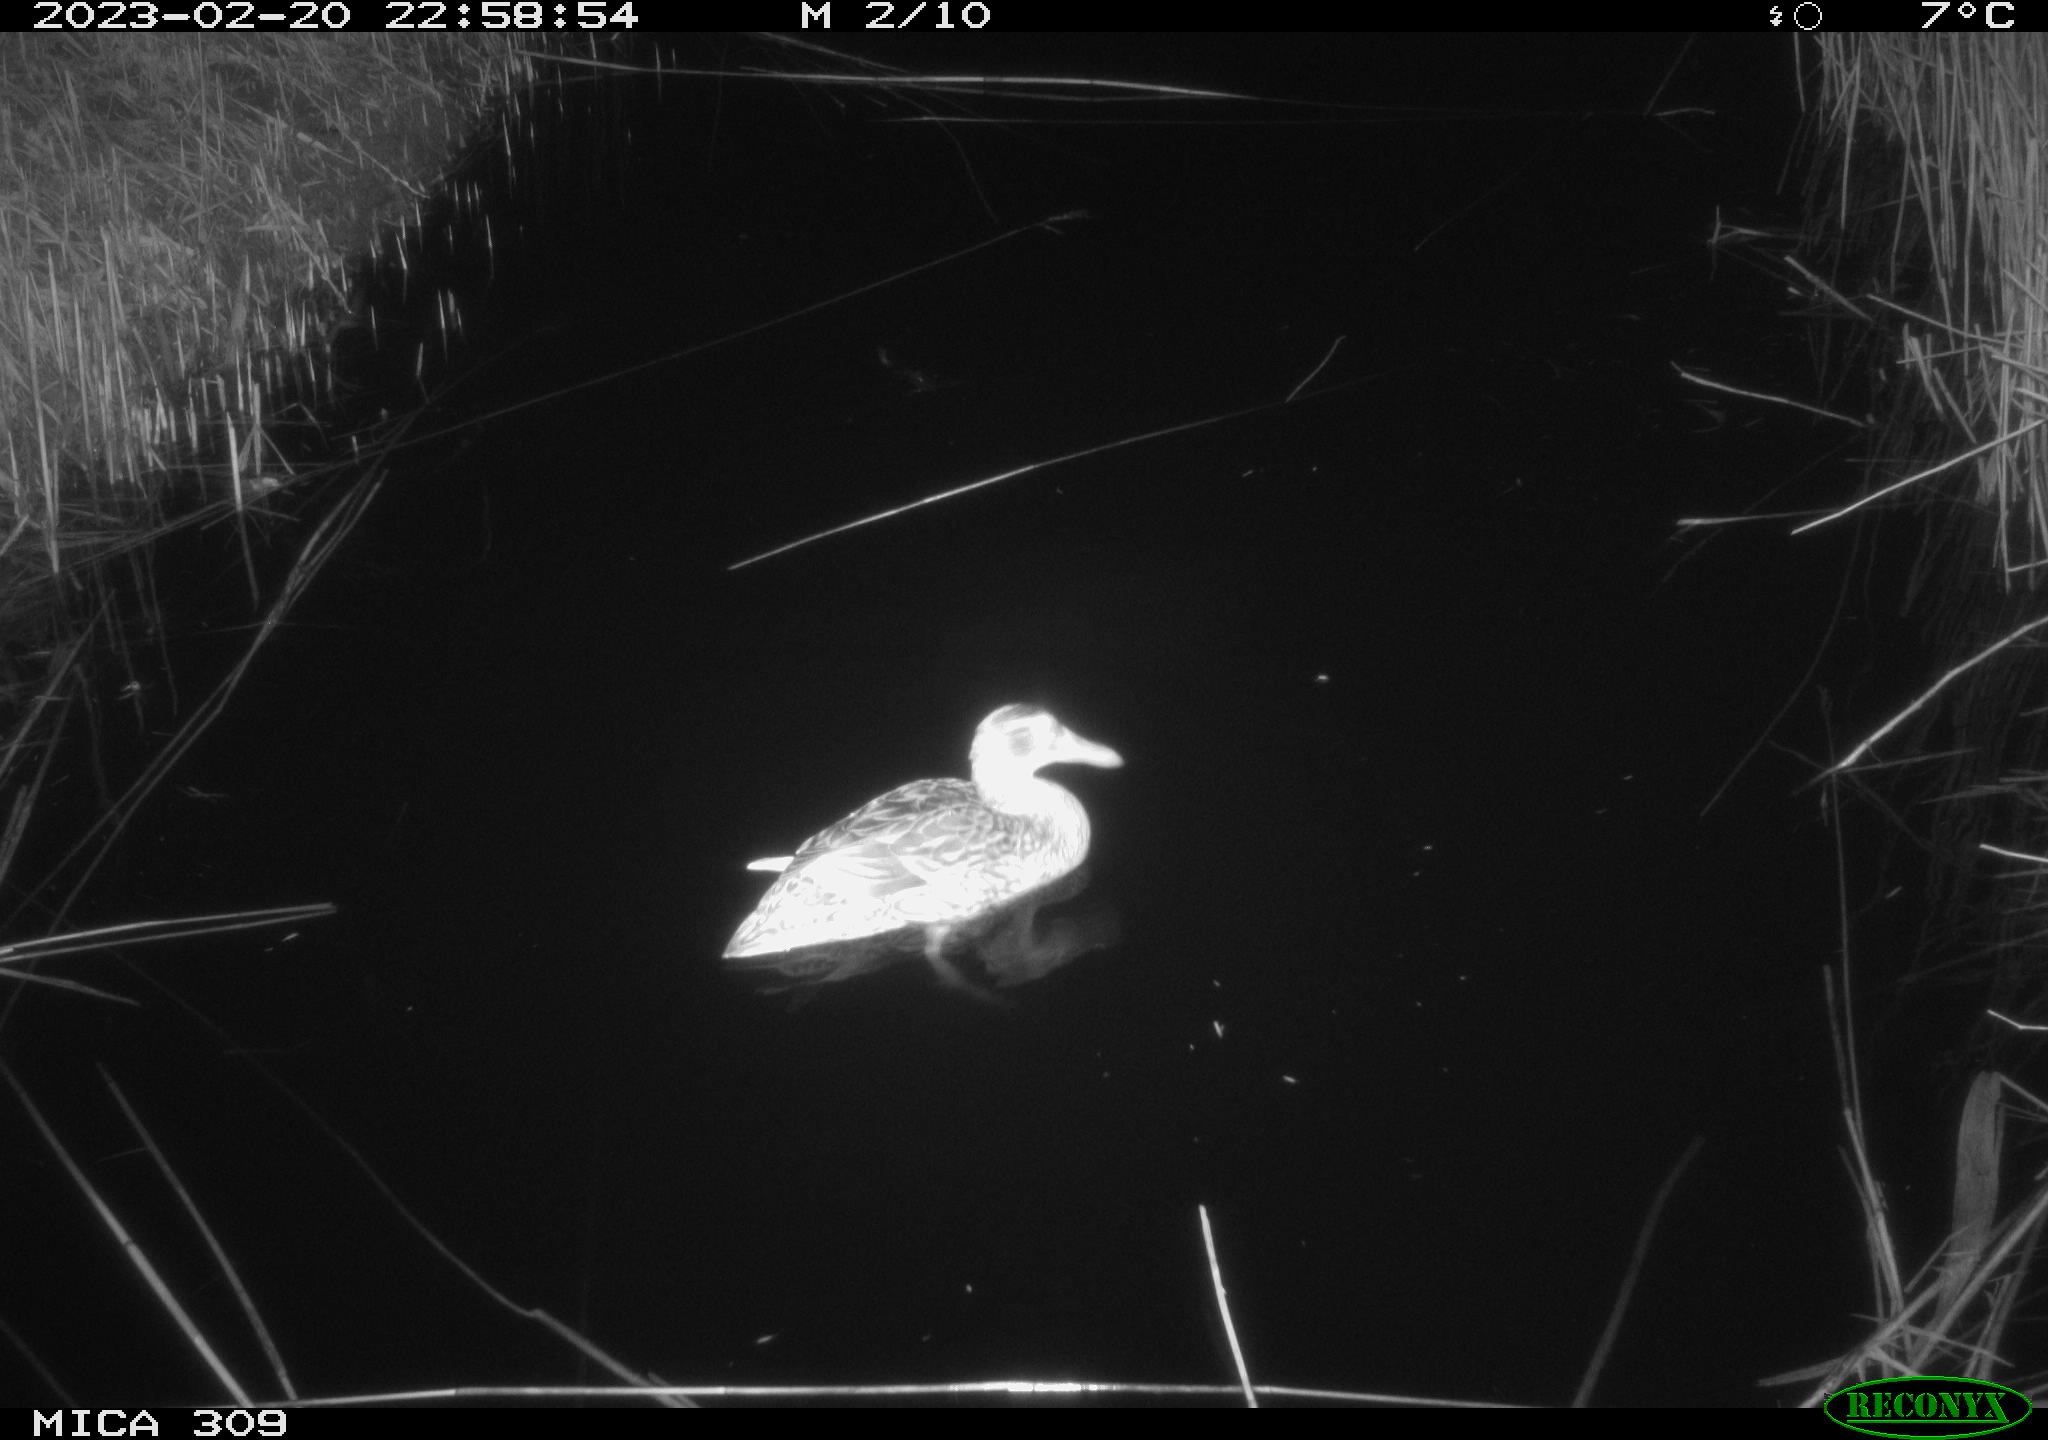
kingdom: Animalia
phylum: Chordata
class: Aves
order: Anseriformes
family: Anatidae
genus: Anas
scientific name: Anas
